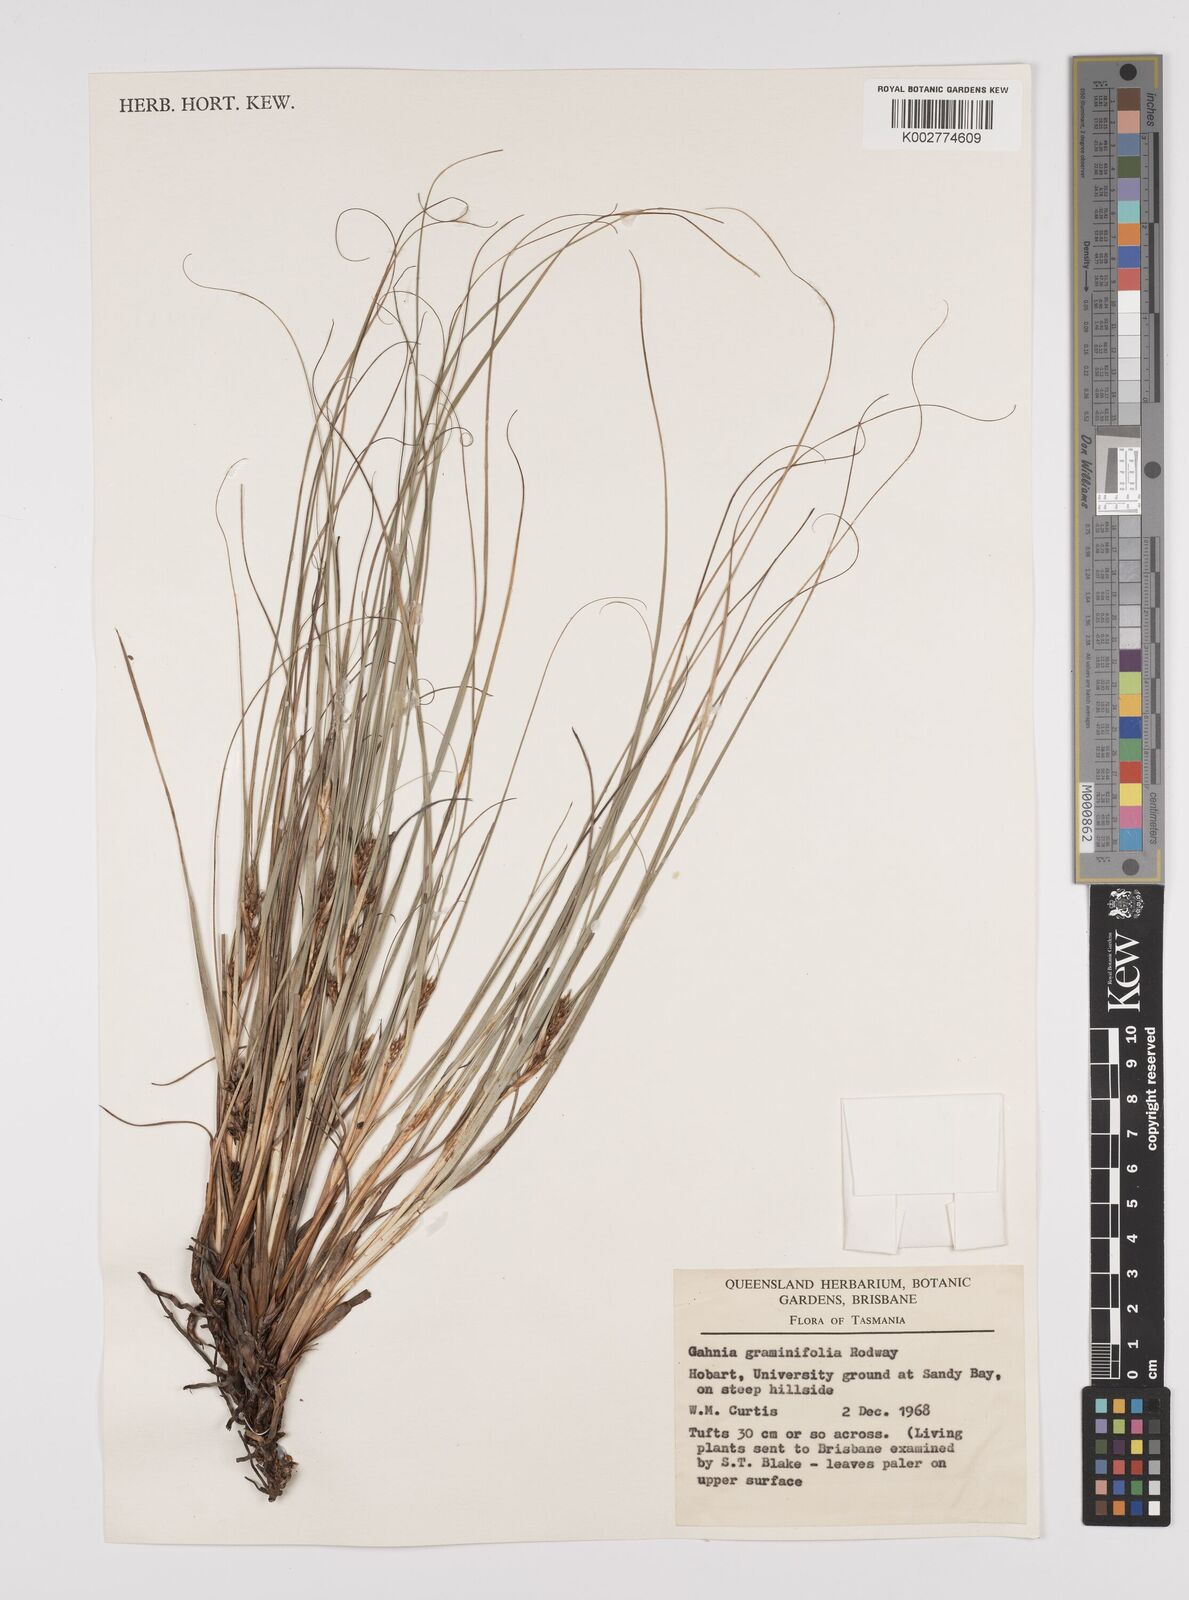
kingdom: Plantae
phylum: Tracheophyta
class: Liliopsida
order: Poales
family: Cyperaceae
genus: Gahnia
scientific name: Gahnia rodwayi
